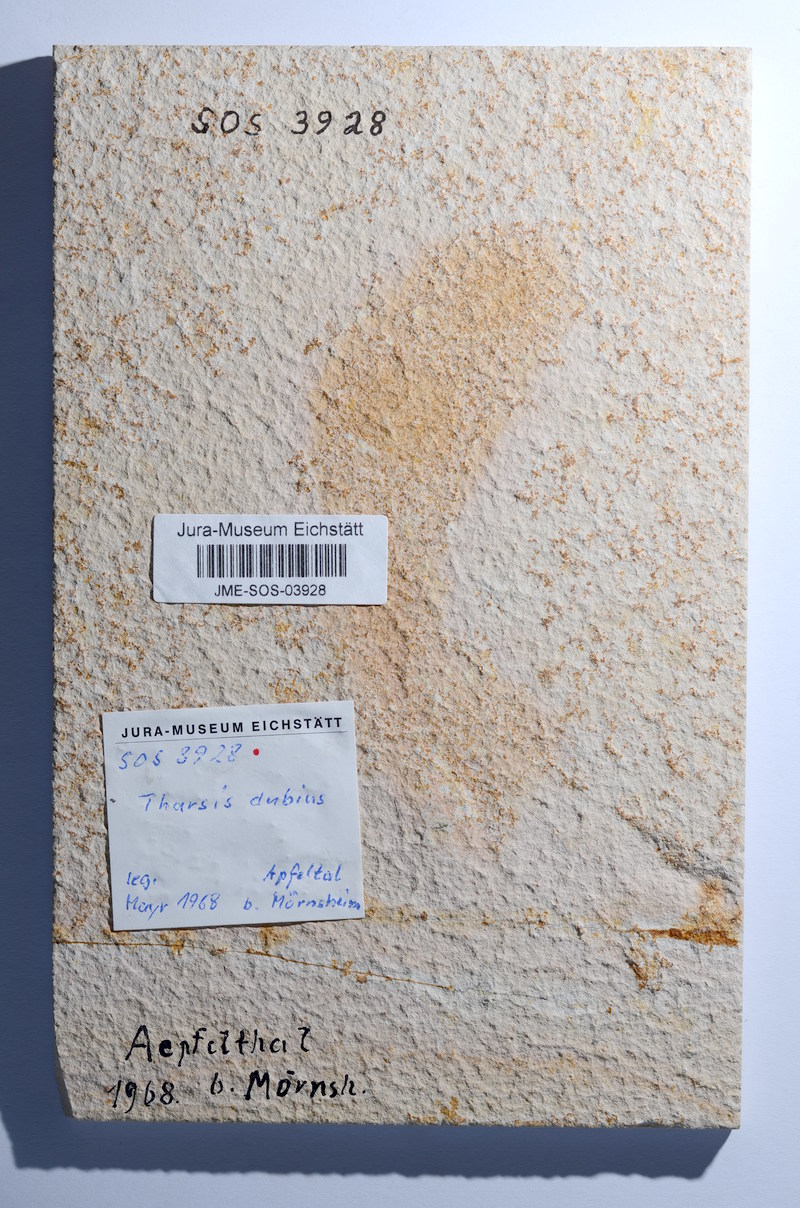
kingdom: Animalia
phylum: Chordata
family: Ascalaboidae
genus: Tharsis
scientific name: Tharsis dubius
